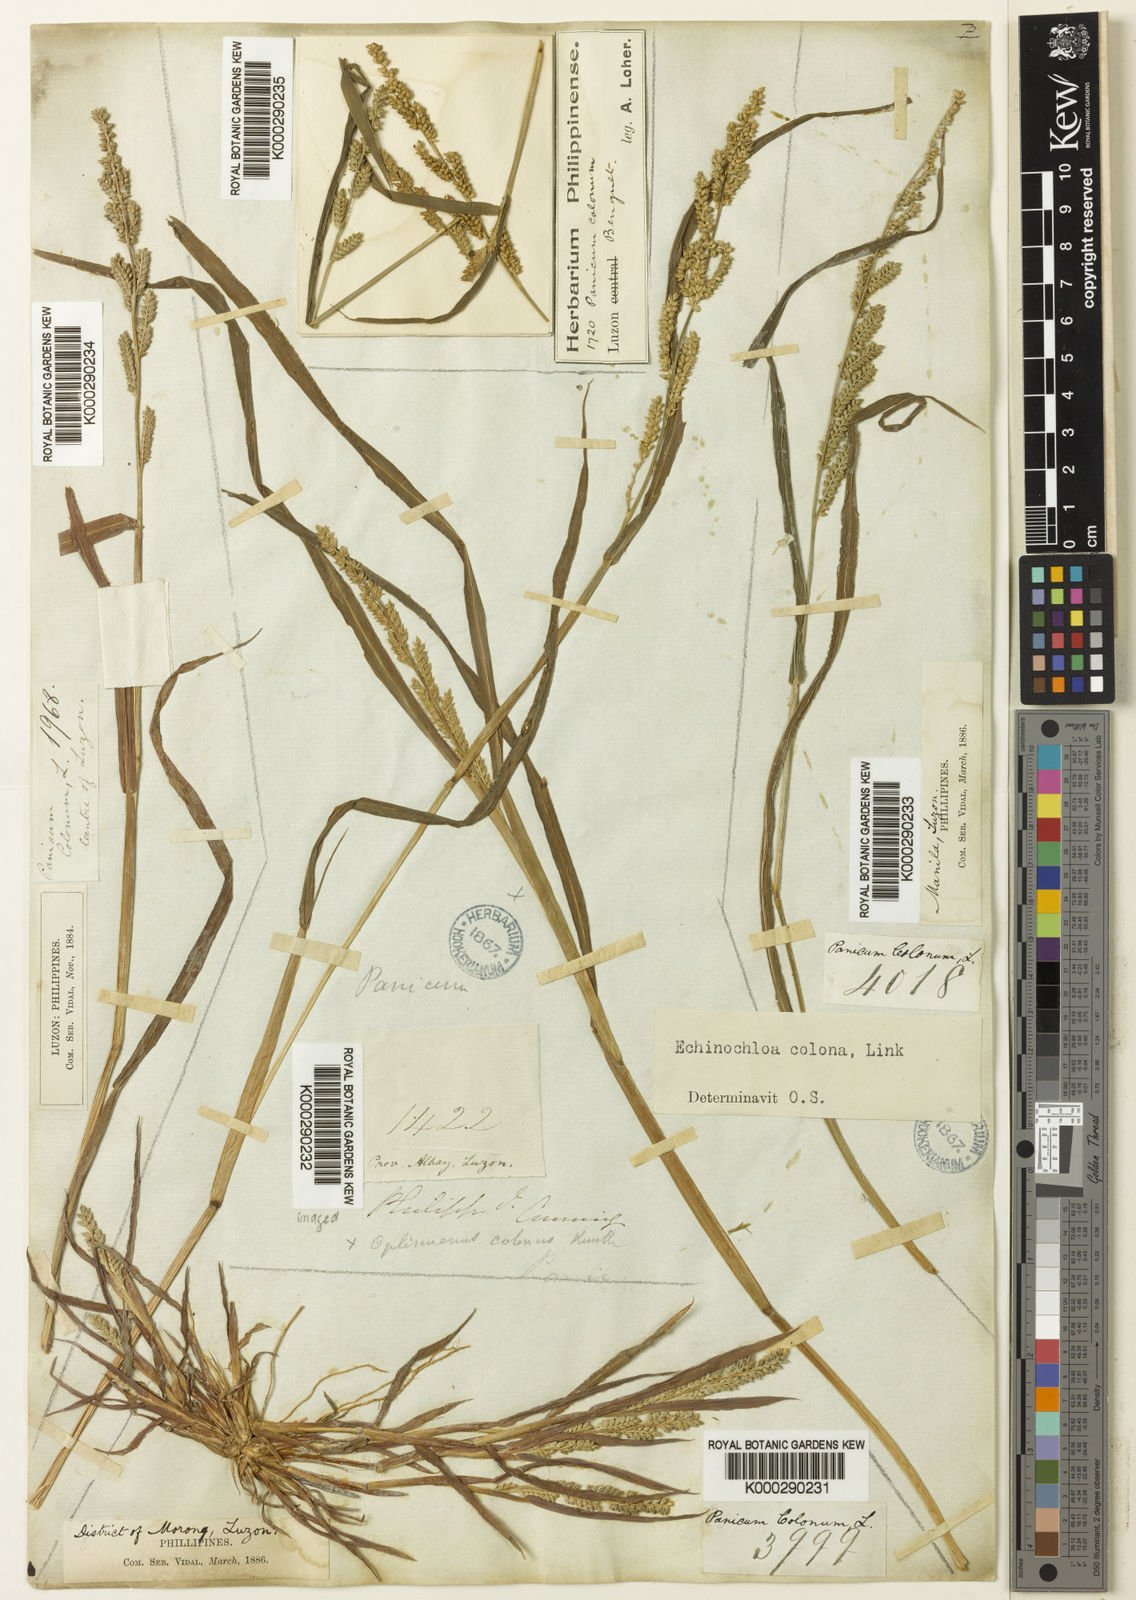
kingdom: Plantae
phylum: Tracheophyta
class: Liliopsida
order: Poales
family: Poaceae
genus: Echinochloa
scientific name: Echinochloa colonum
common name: Jungle rice
